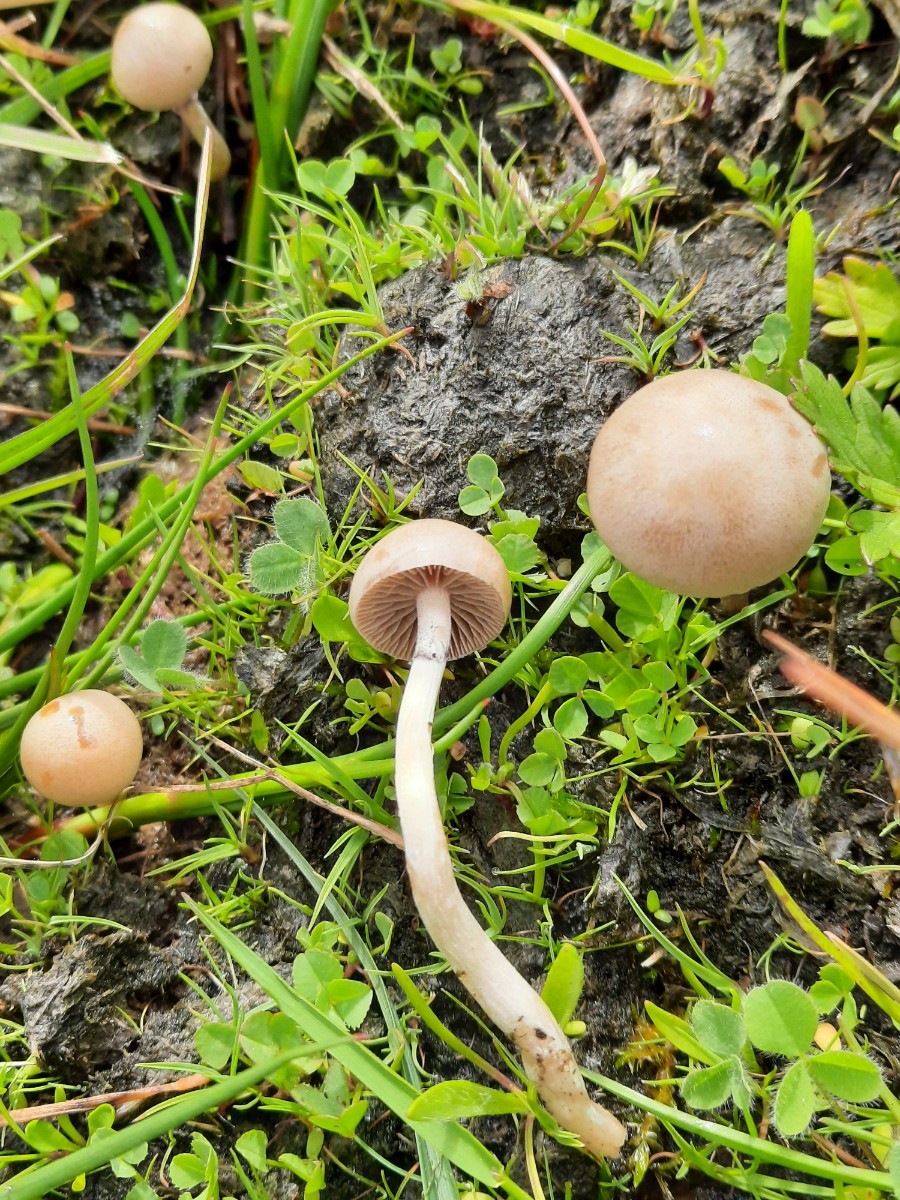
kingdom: Fungi
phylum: Basidiomycota
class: Agaricomycetes
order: Agaricales
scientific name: Agaricales
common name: champignonordenen
